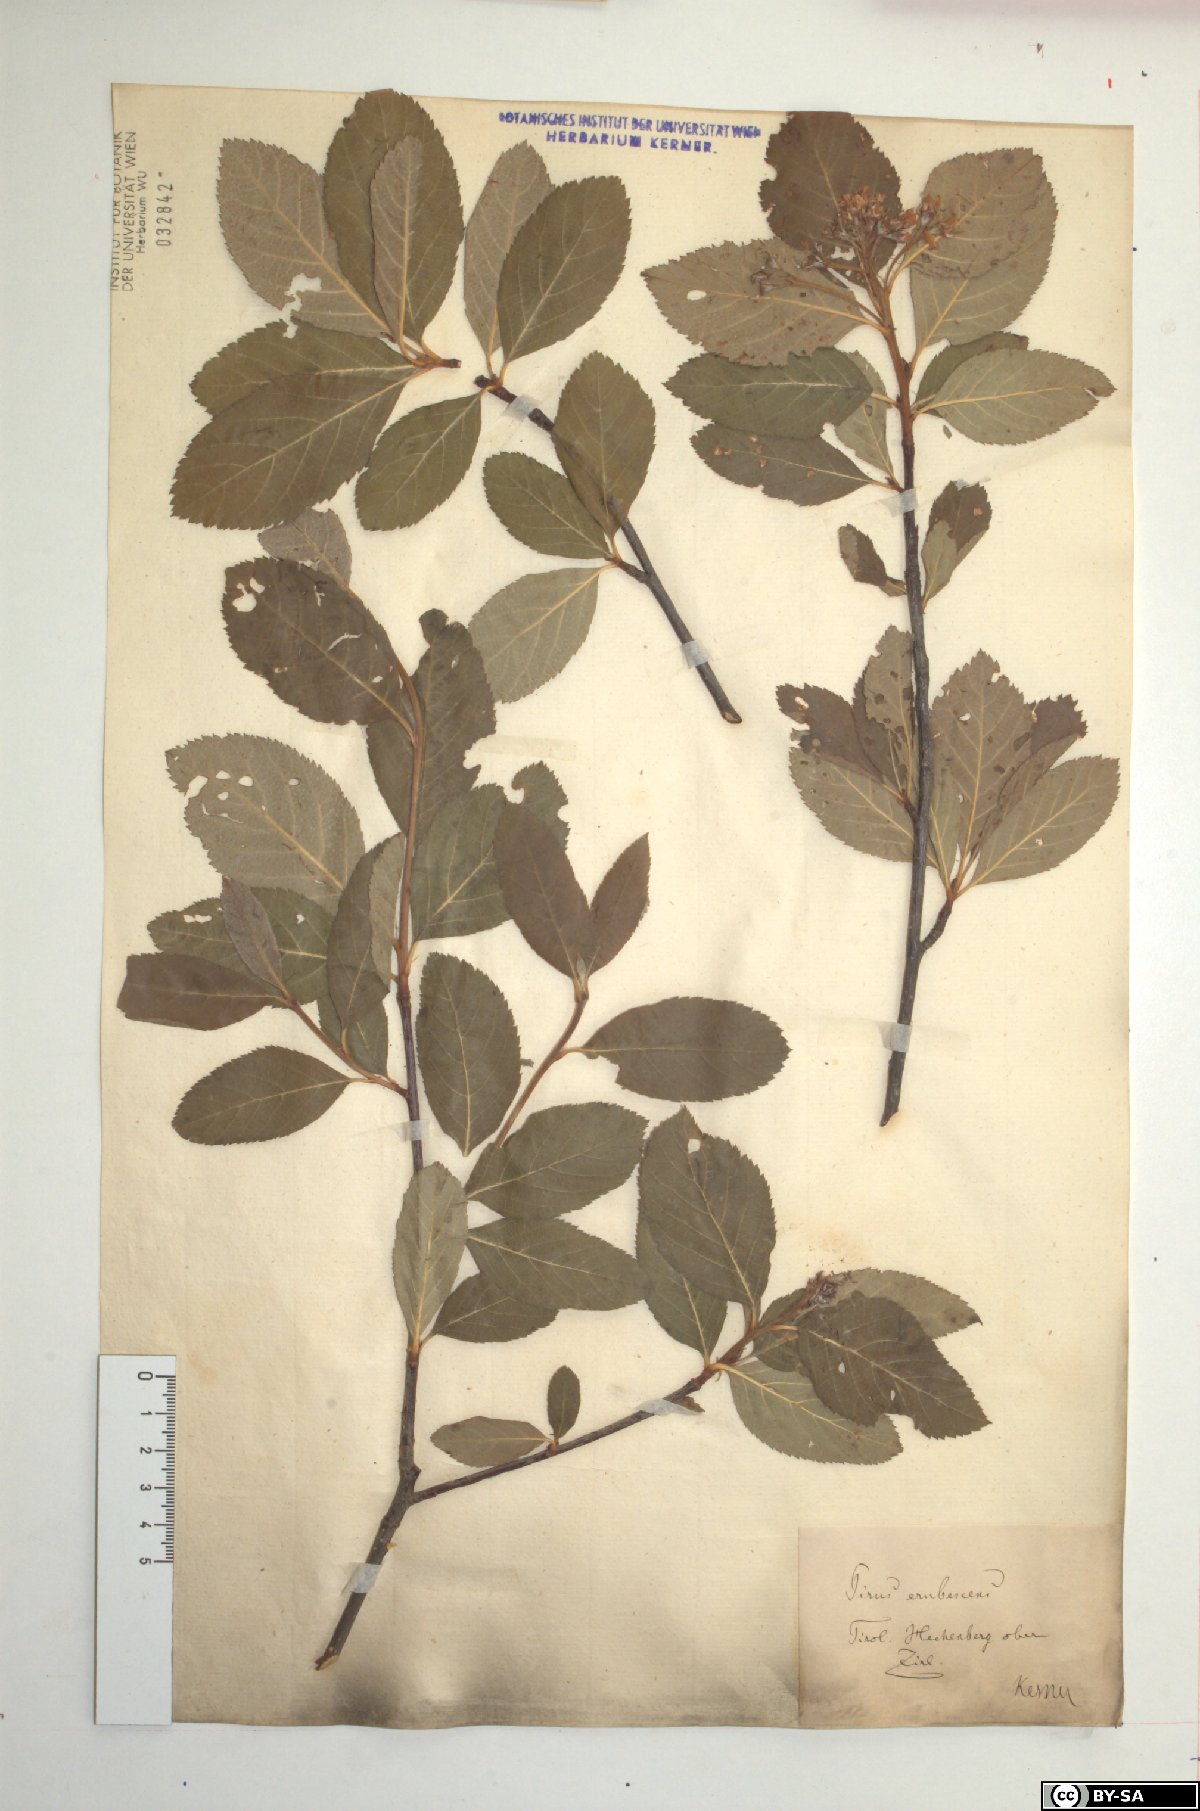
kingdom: Plantae
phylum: Tracheophyta
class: Magnoliopsida
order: Rosales
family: Rosaceae
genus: Majovskya
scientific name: Majovskya sudetica
